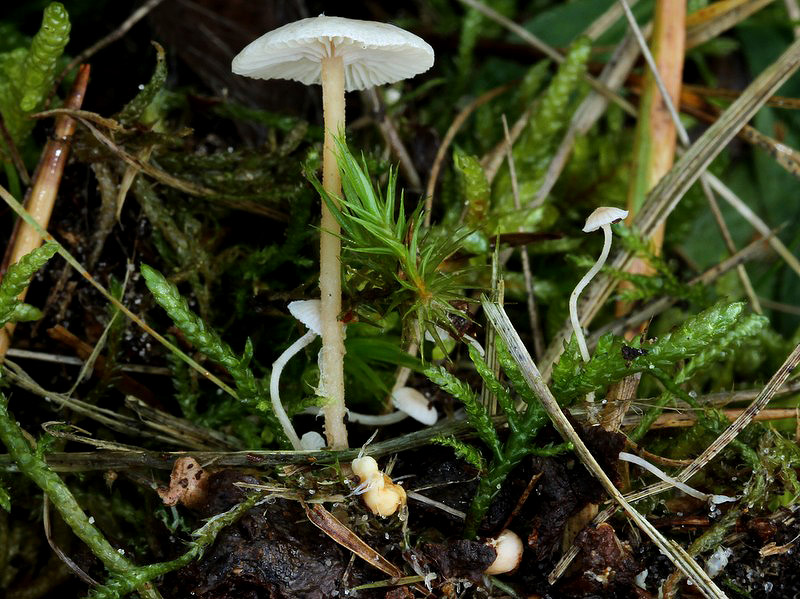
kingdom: Fungi
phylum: Basidiomycota
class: Agaricomycetes
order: Agaricales
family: Tricholomataceae
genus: Collybia
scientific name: Collybia cookei
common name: gulknoldet lighat
